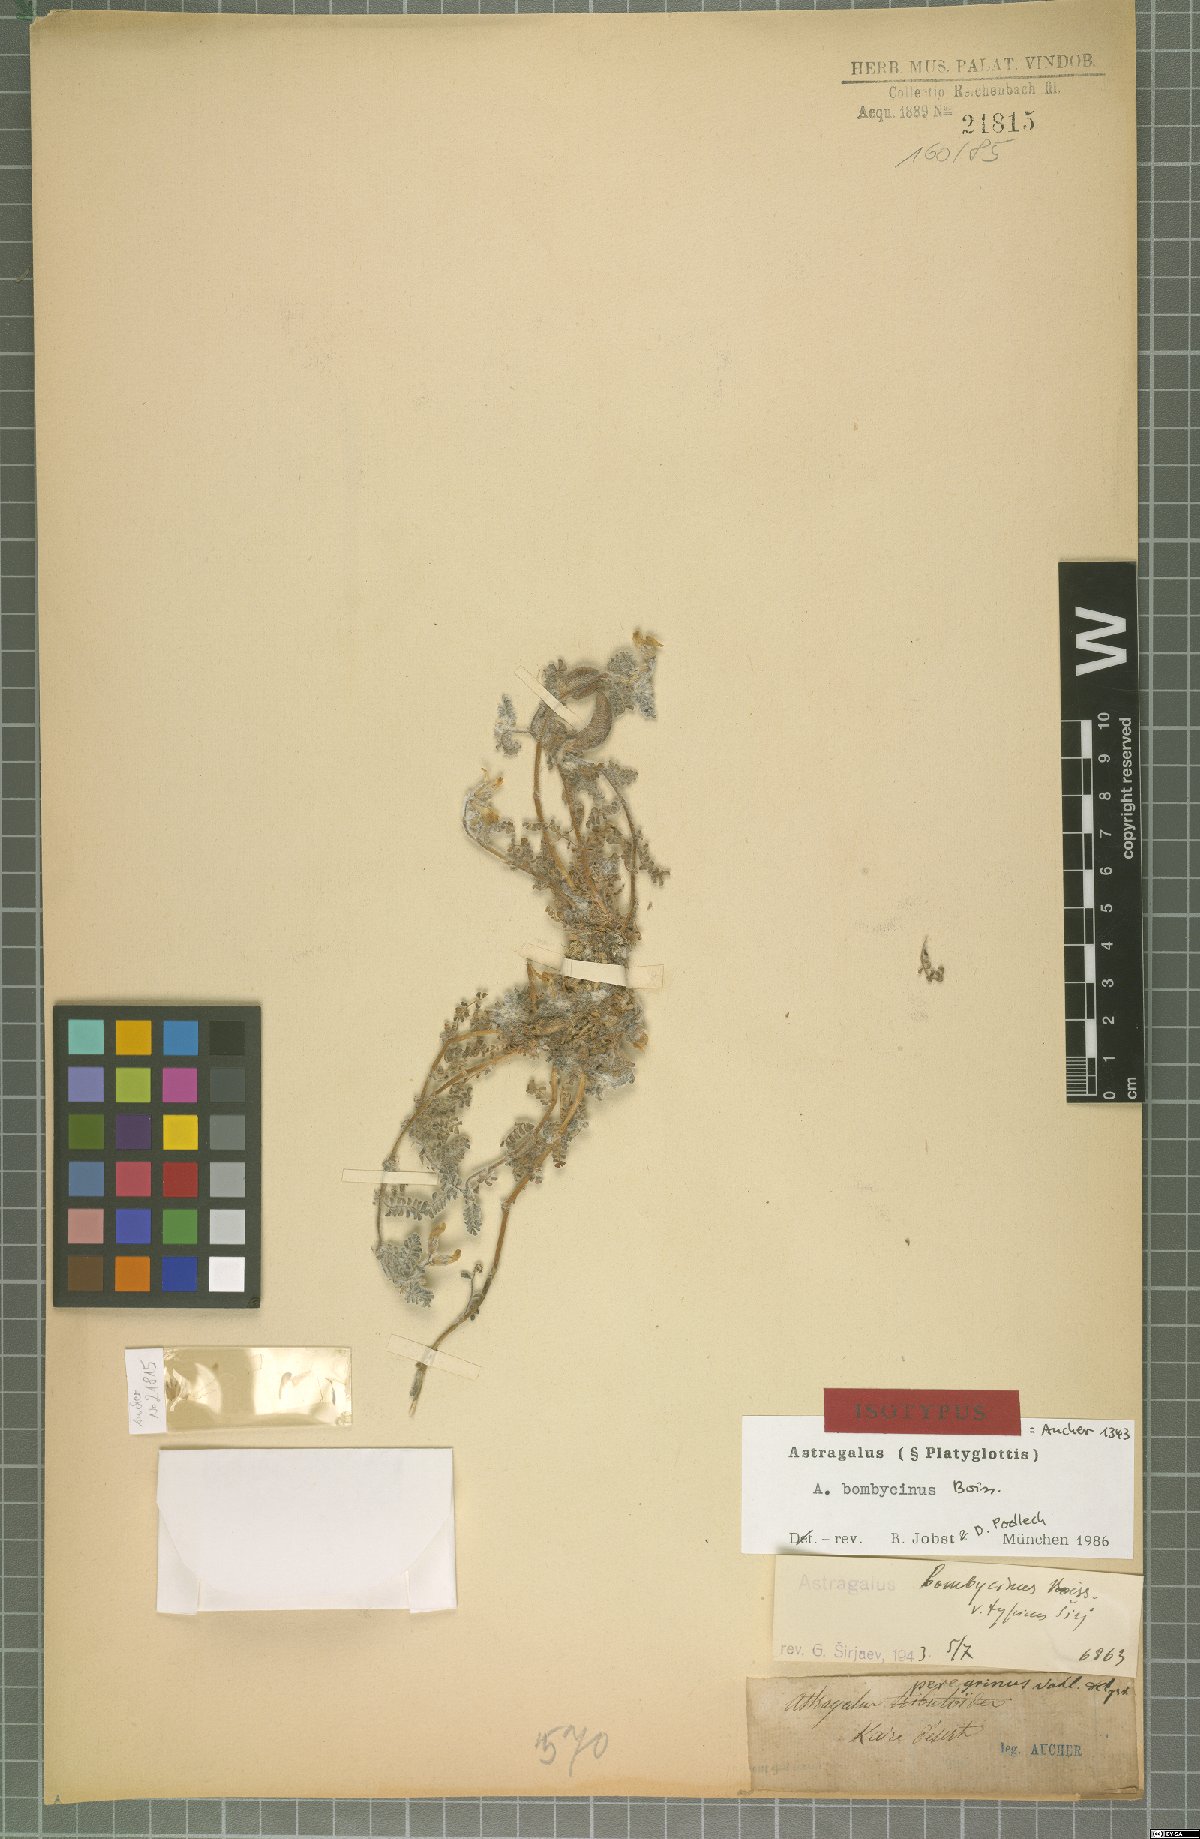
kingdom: Plantae
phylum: Tracheophyta
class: Magnoliopsida
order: Fabales
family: Fabaceae
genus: Astragalus
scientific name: Astragalus bombycinus
